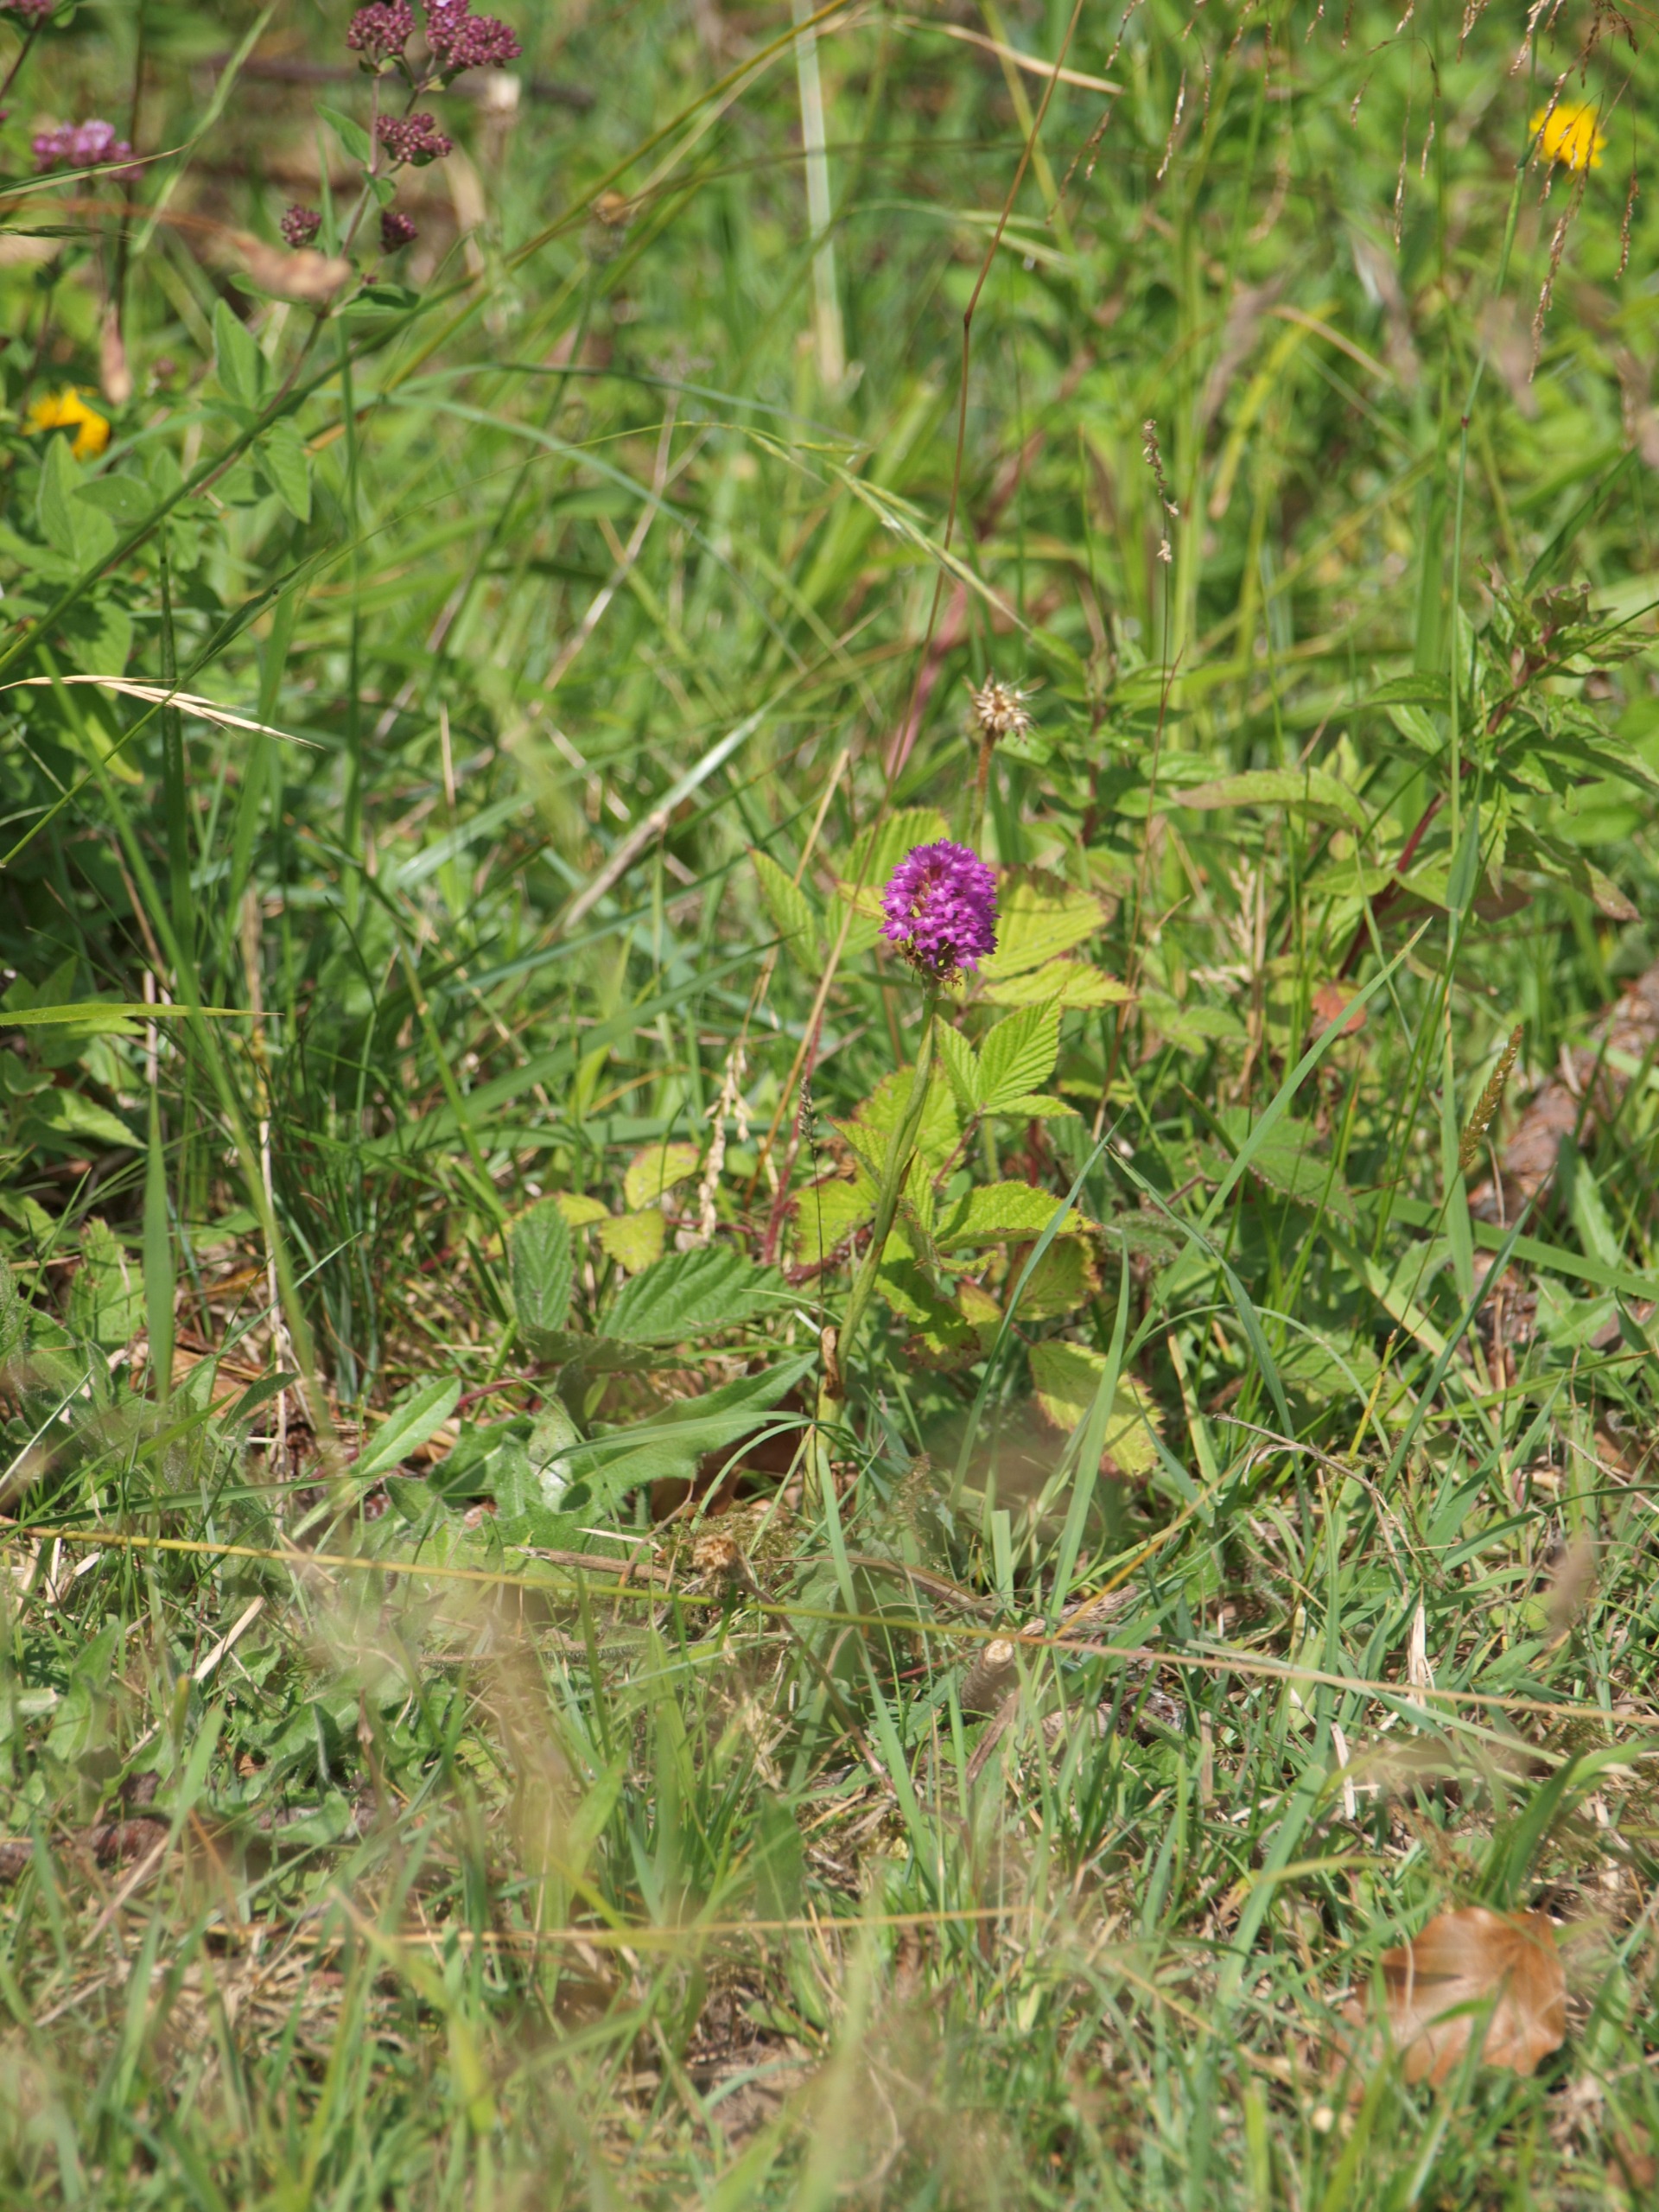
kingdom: Plantae
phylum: Tracheophyta
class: Liliopsida
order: Asparagales
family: Orchidaceae
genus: Anacamptis
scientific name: Anacamptis pyramidalis
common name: Horndrager
